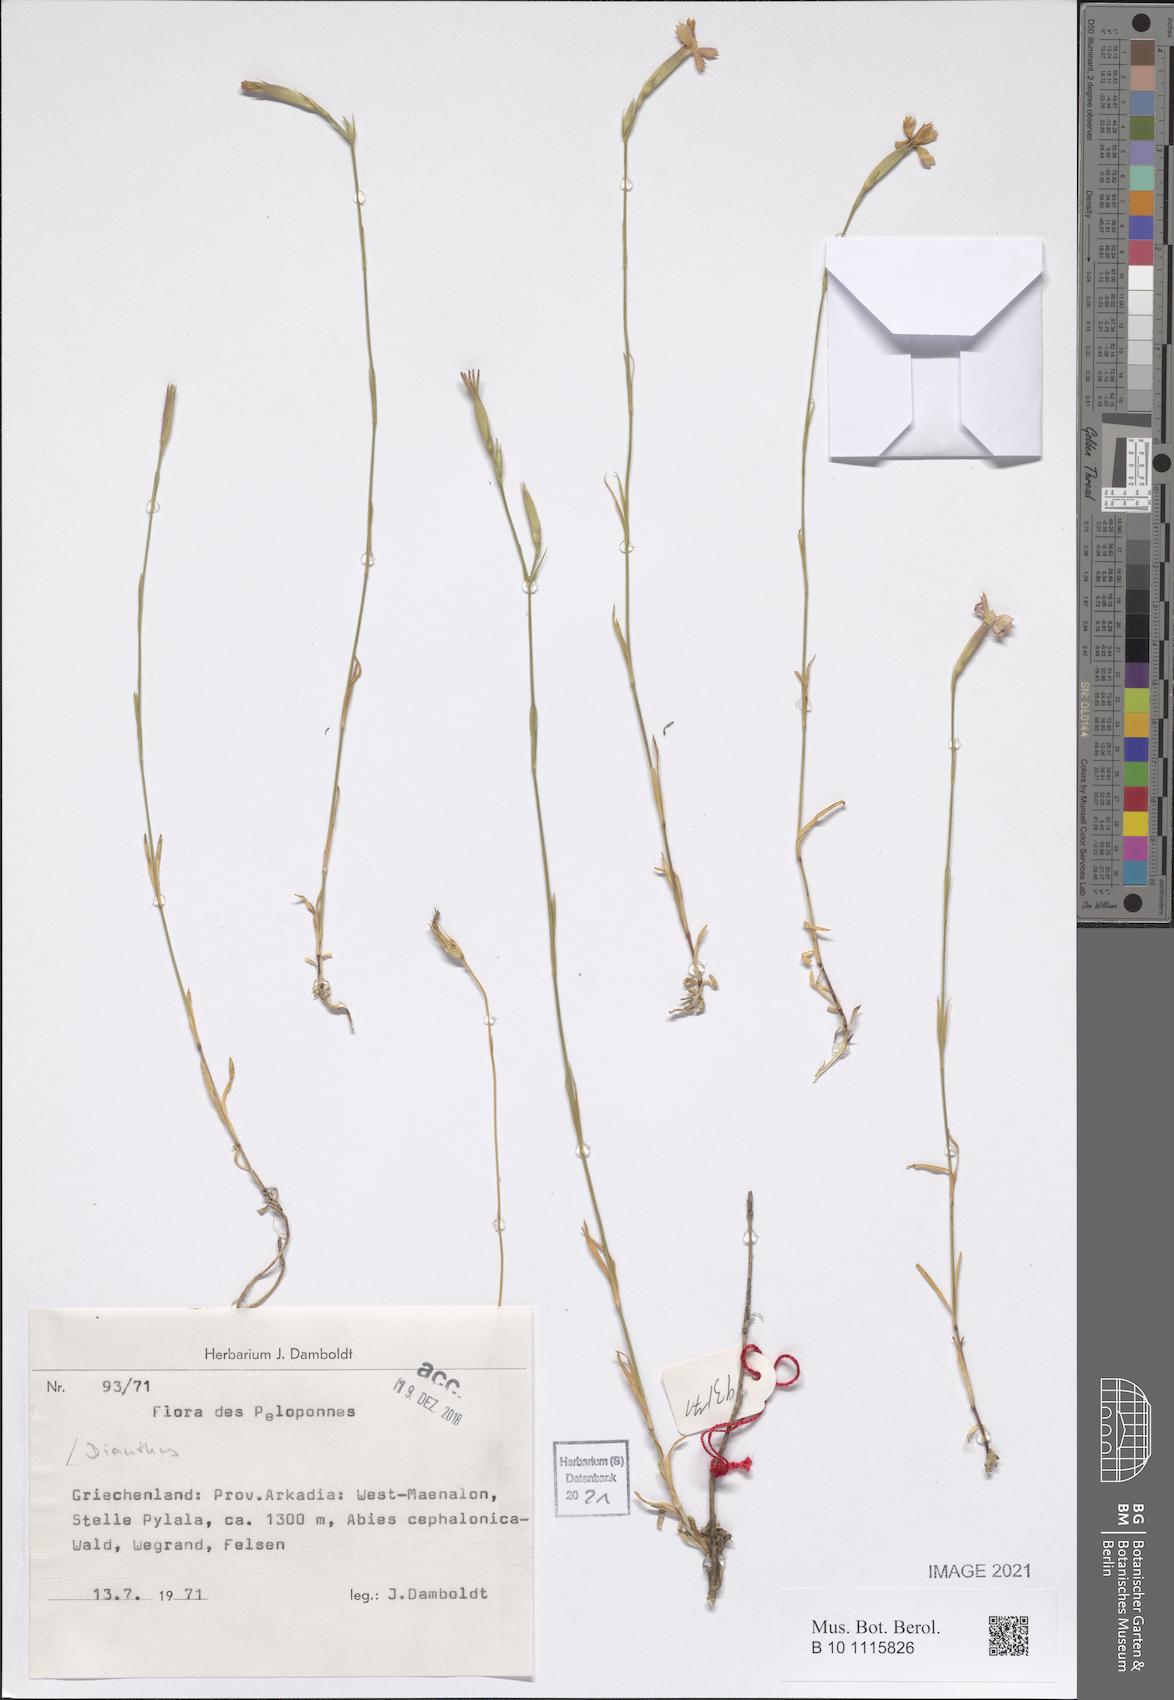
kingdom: Plantae
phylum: Tracheophyta
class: Magnoliopsida
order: Caryophyllales
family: Caryophyllaceae
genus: Dianthus
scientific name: Dianthus
